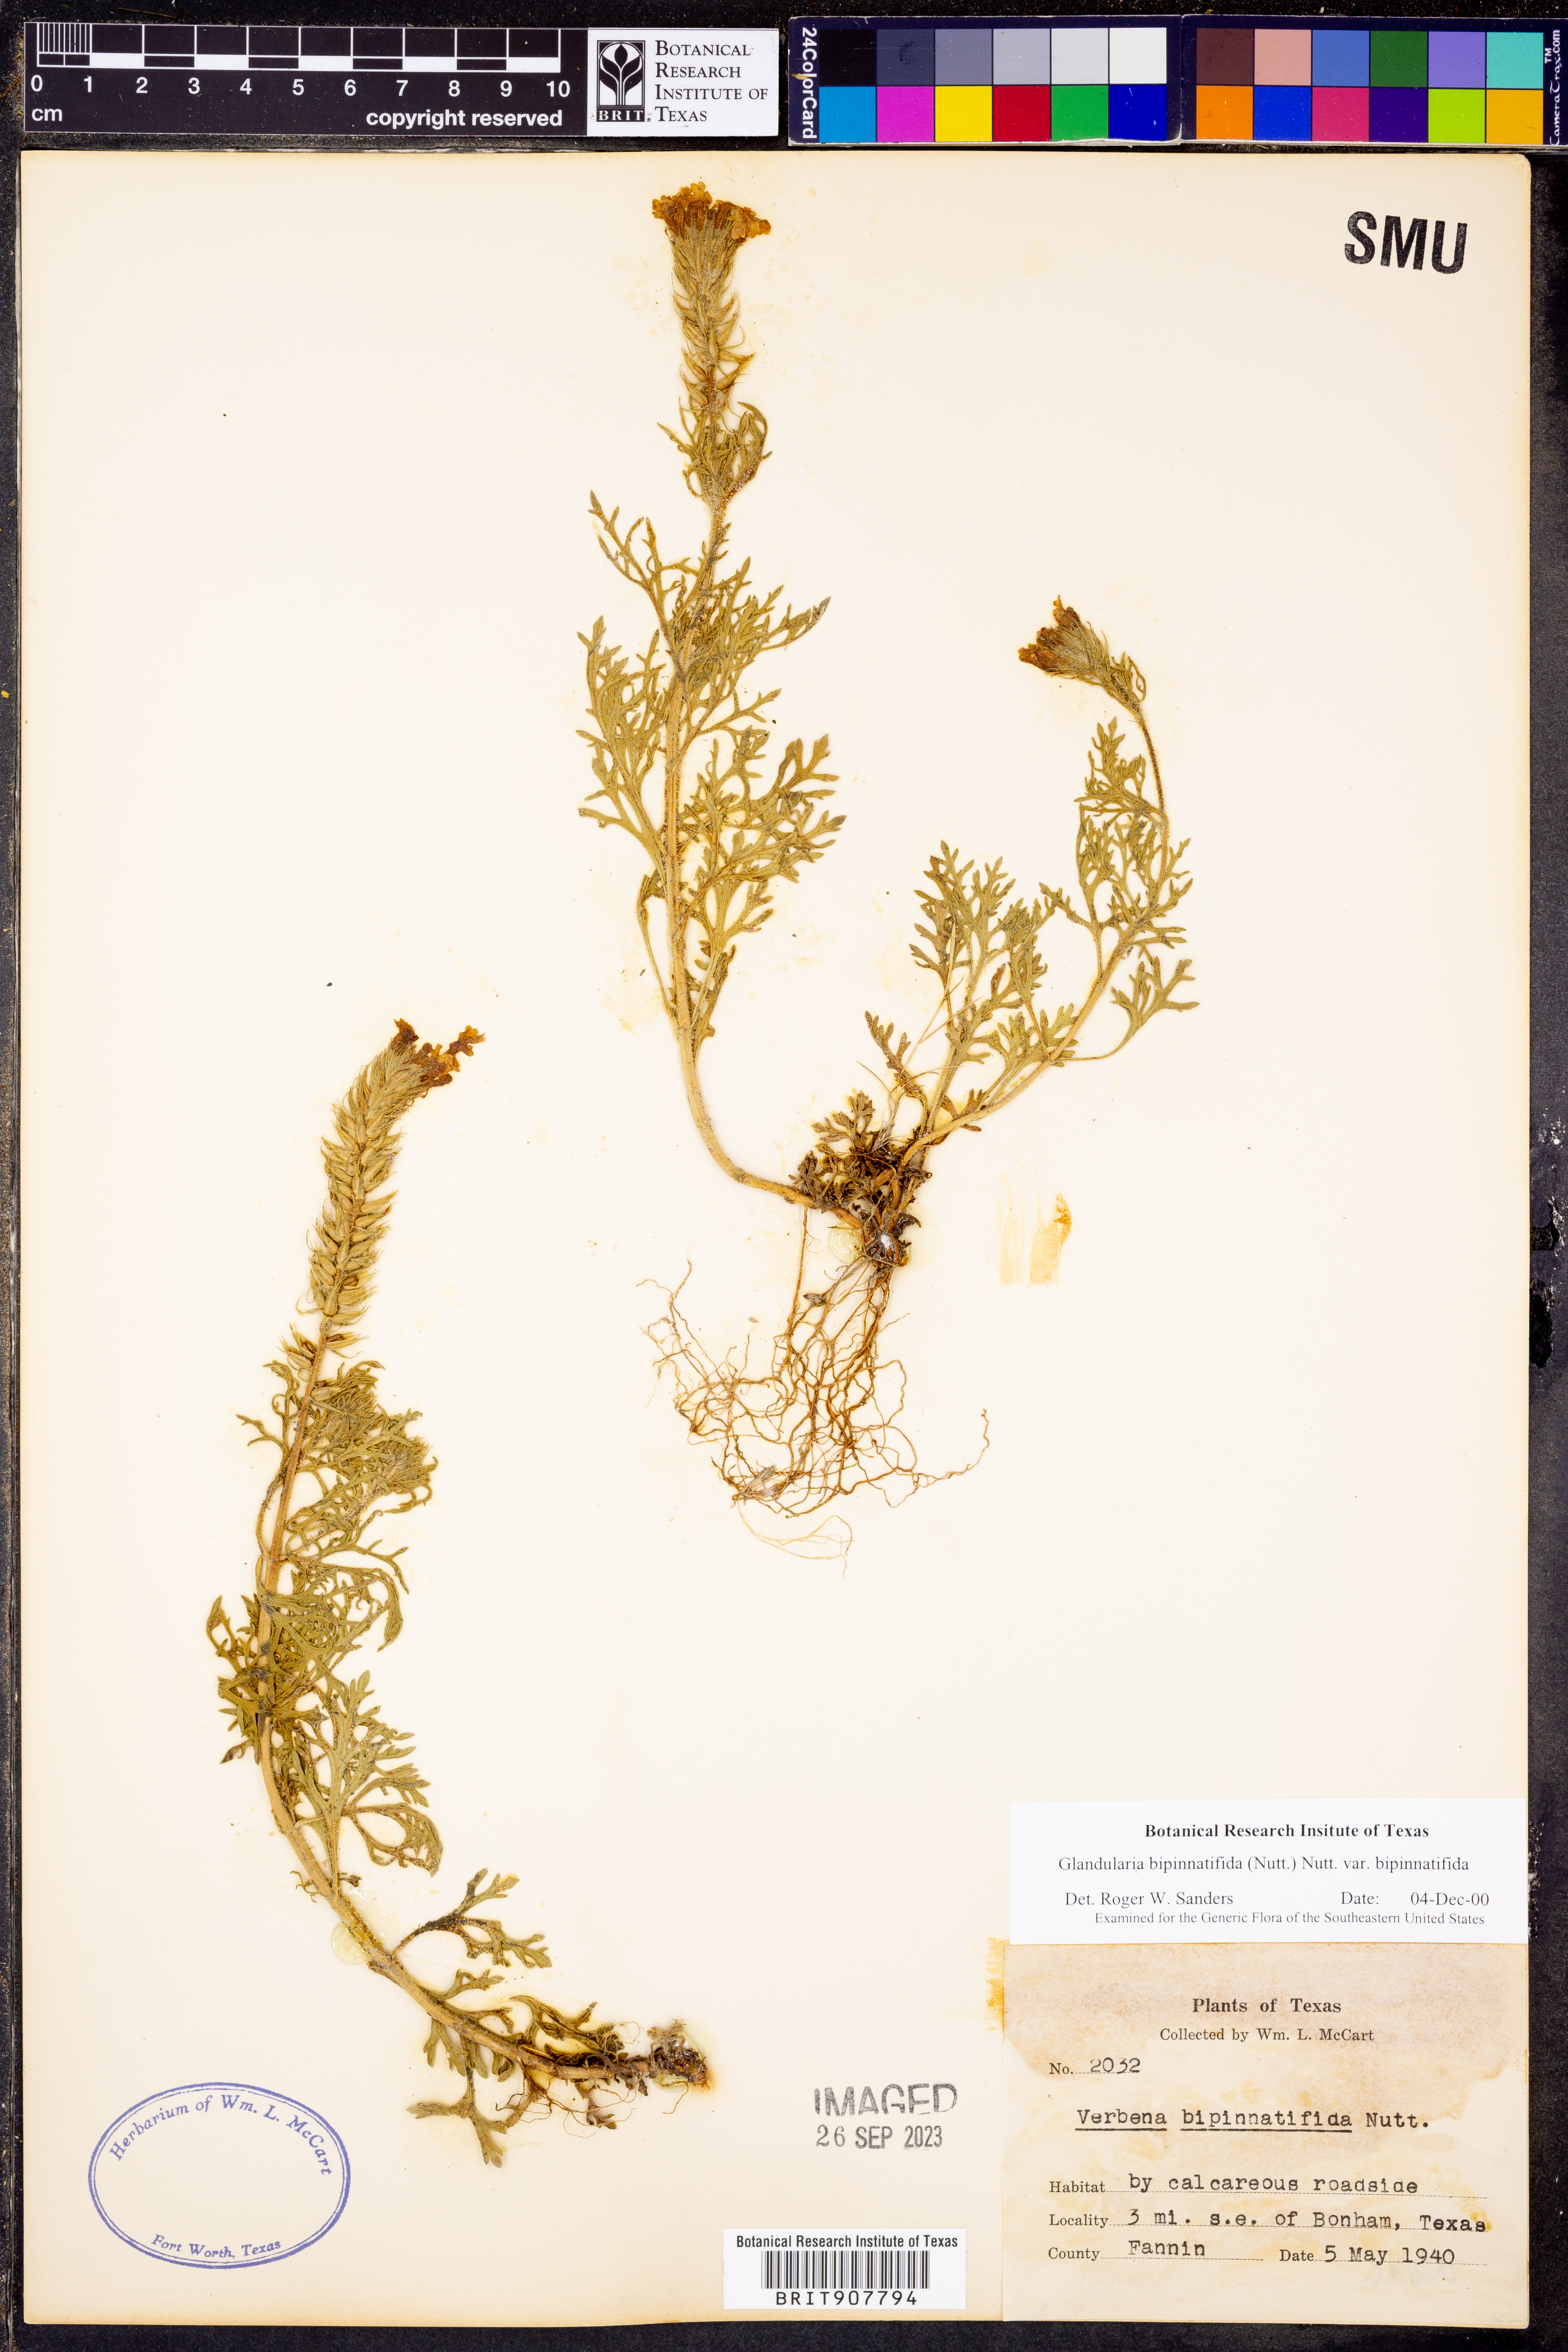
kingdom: Plantae
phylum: Tracheophyta
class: Magnoliopsida
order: Lamiales
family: Verbenaceae
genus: Verbena
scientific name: Verbena bipinnatifida
